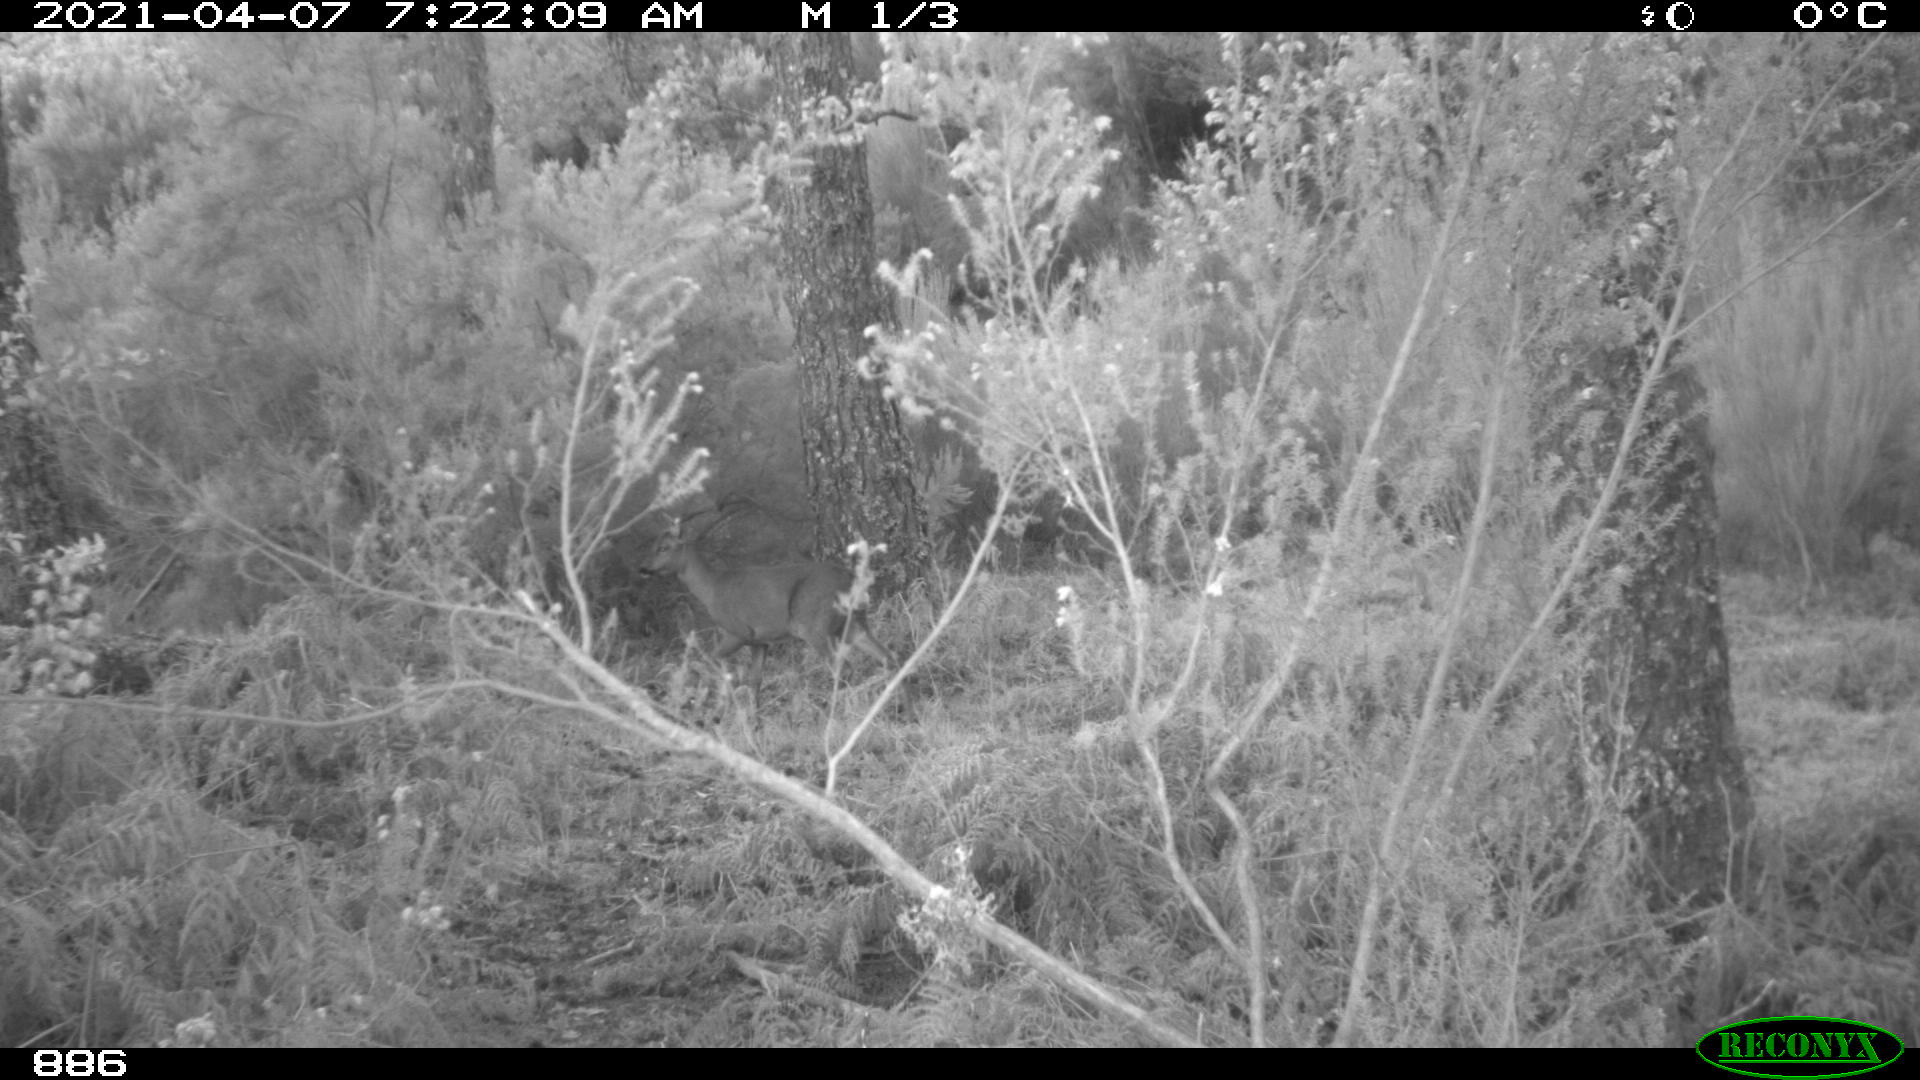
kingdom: Animalia
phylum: Chordata
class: Mammalia
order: Artiodactyla
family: Cervidae
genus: Capreolus
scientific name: Capreolus capreolus
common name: Western roe deer
